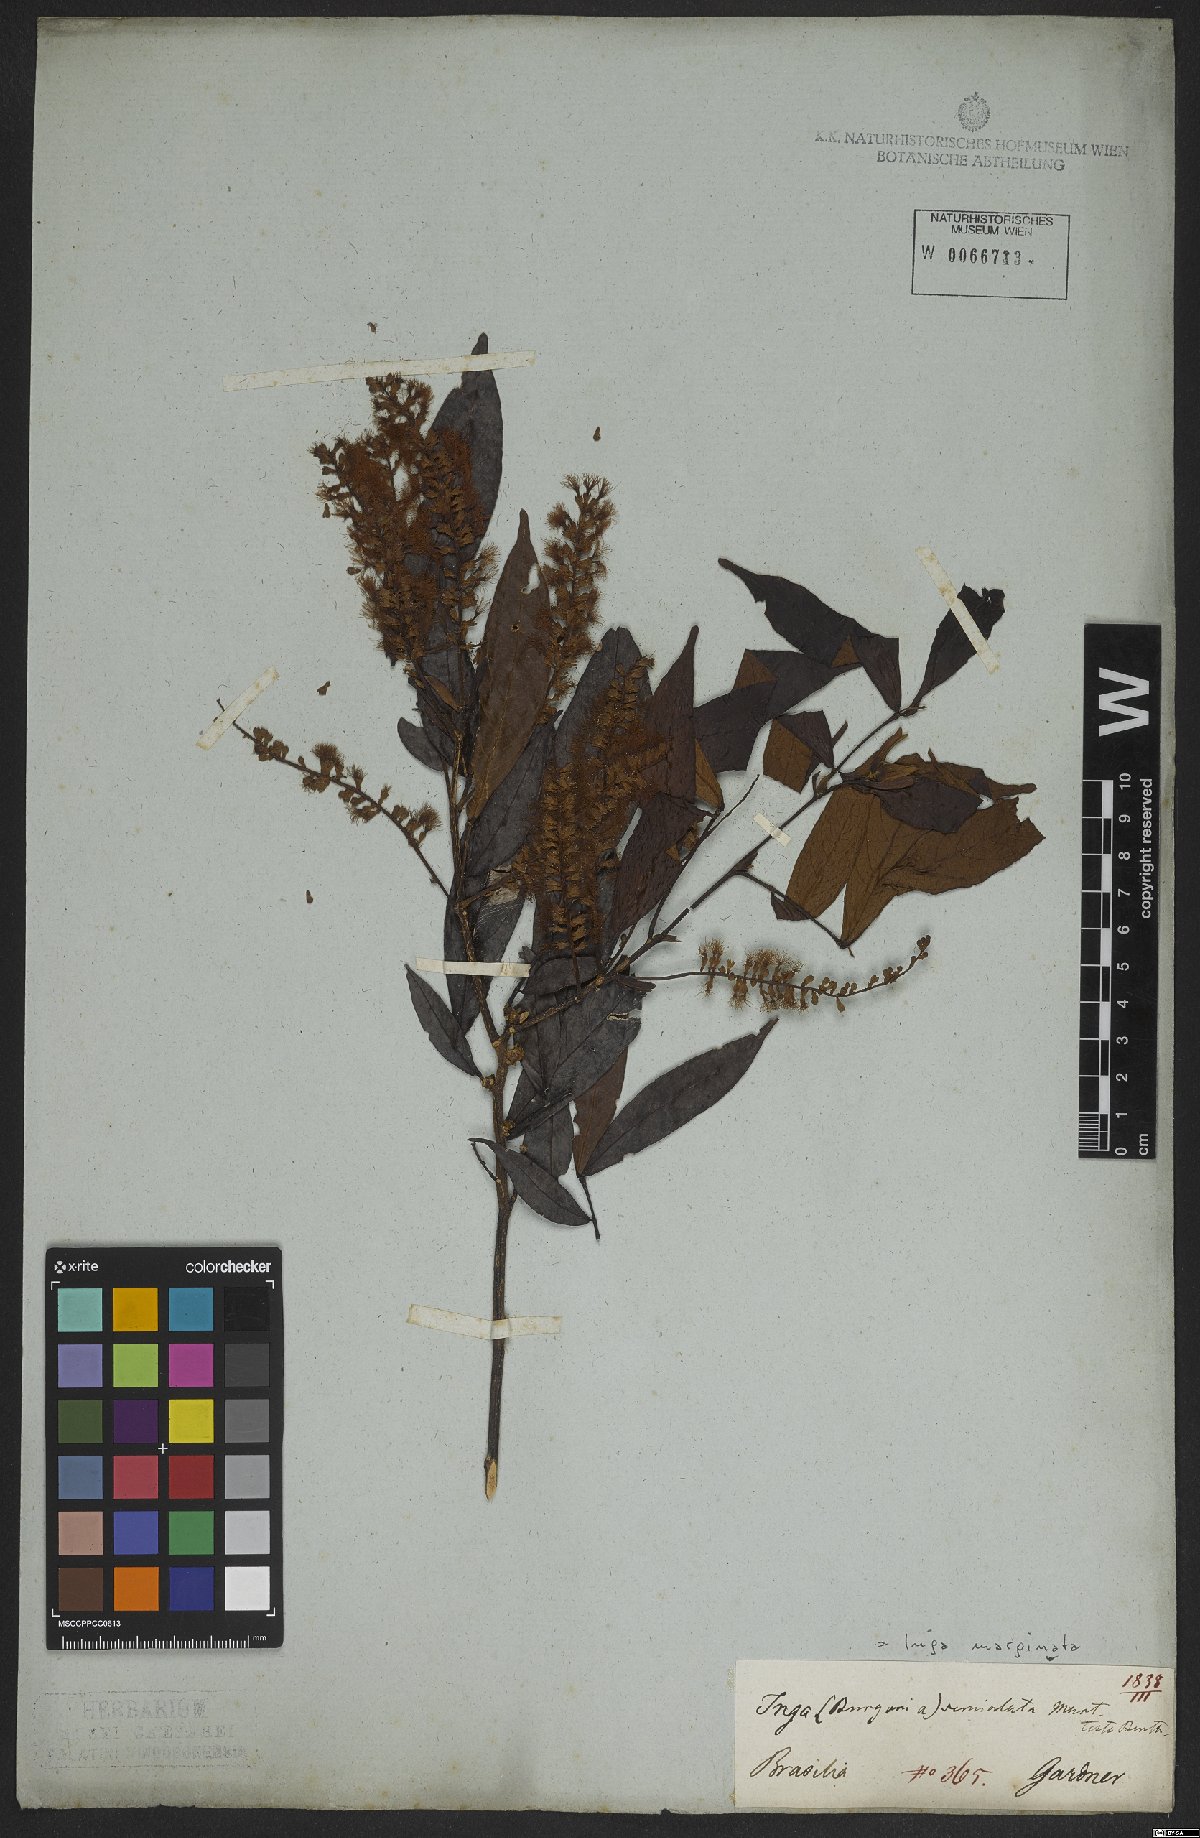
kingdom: Plantae
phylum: Tracheophyta
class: Magnoliopsida
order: Fabales
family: Fabaceae
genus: Inga
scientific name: Inga marginata
